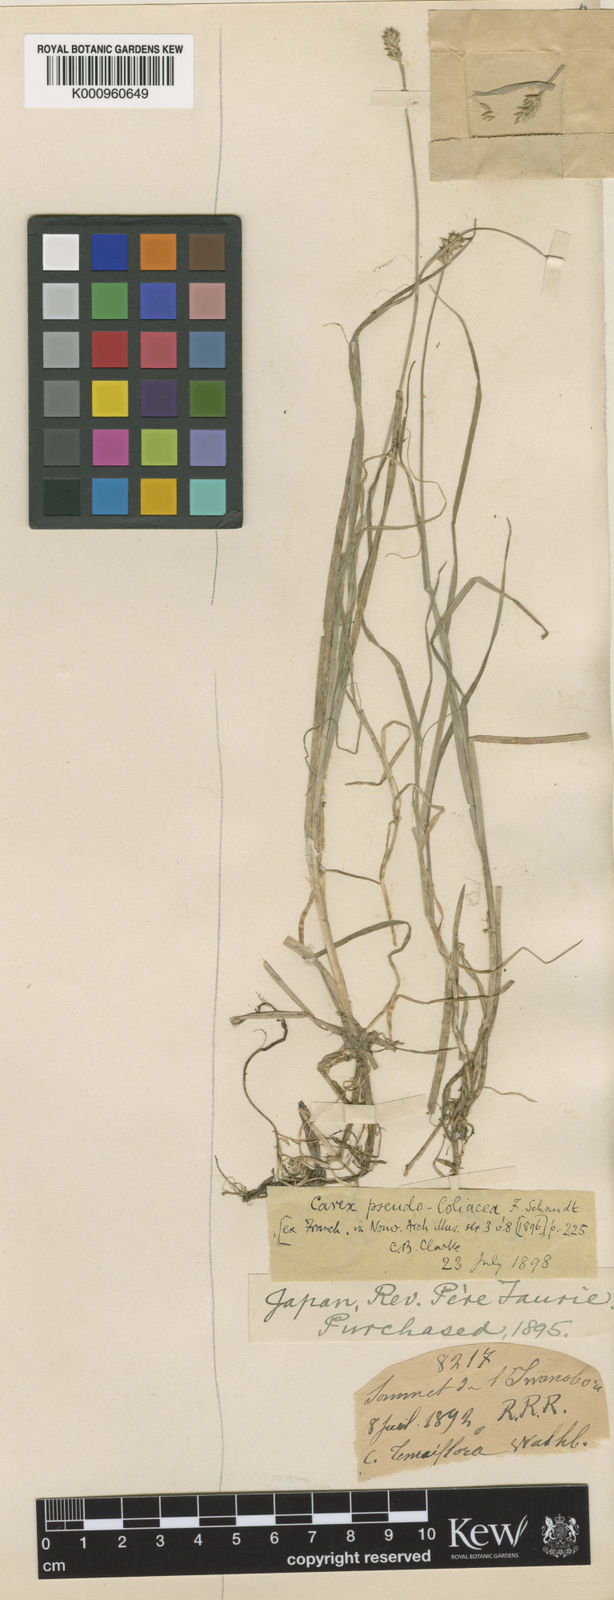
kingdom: Plantae
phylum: Tracheophyta
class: Liliopsida
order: Poales
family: Cyperaceae
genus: Carex
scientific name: Carex pseudololiacea
